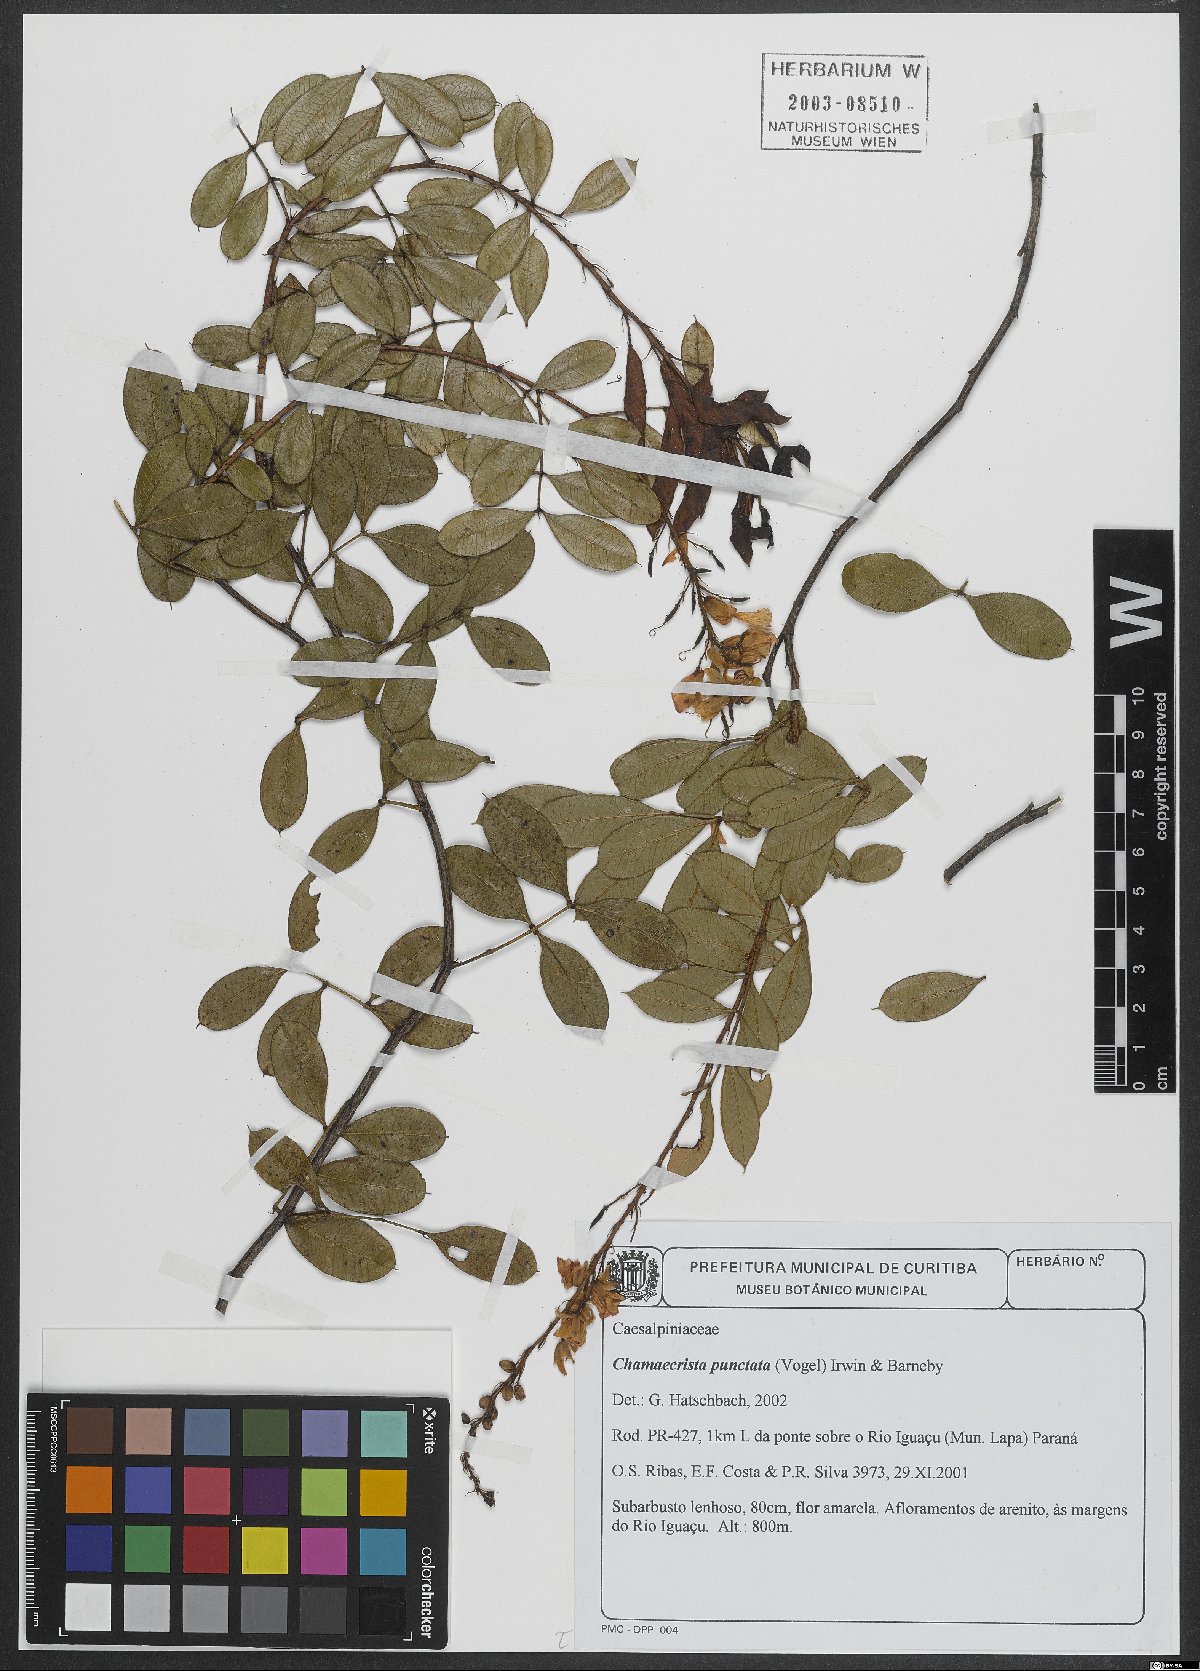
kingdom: Plantae
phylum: Tracheophyta
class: Magnoliopsida
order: Fabales
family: Fabaceae
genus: Chamaecrista
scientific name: Chamaecrista punctata
